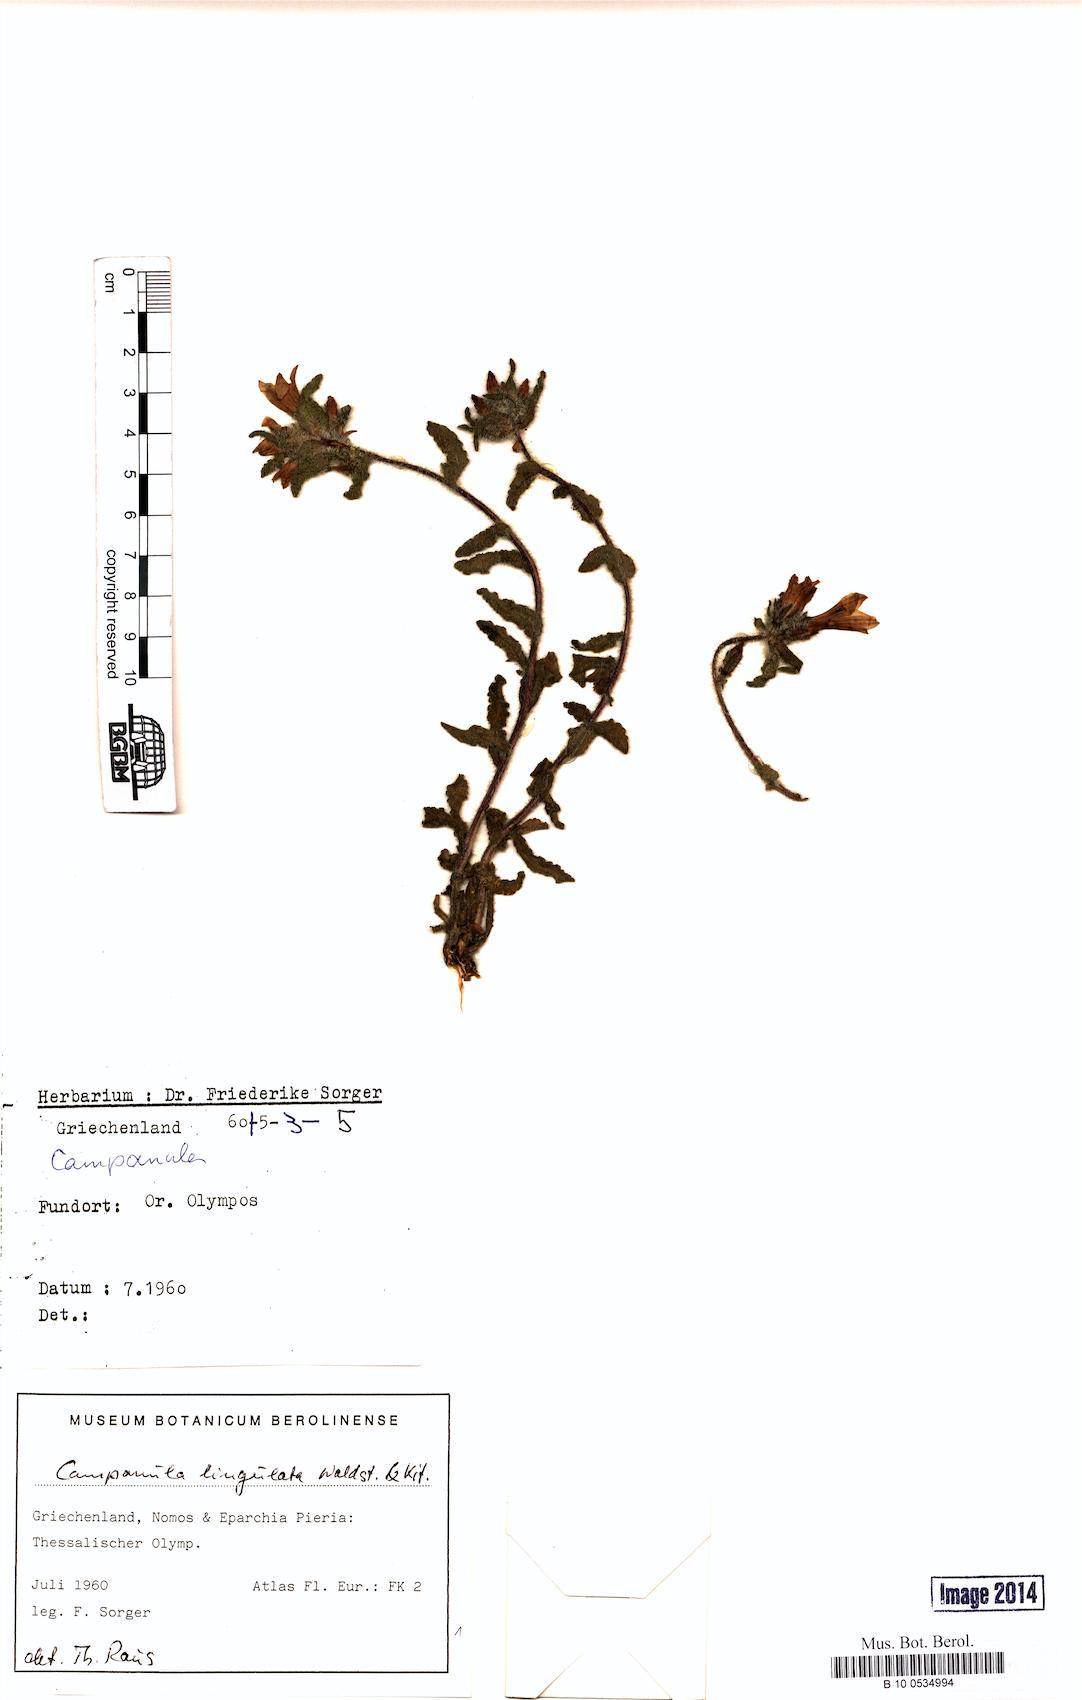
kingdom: Plantae
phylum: Tracheophyta
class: Magnoliopsida
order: Asterales
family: Campanulaceae
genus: Campanula
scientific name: Campanula lingulata
